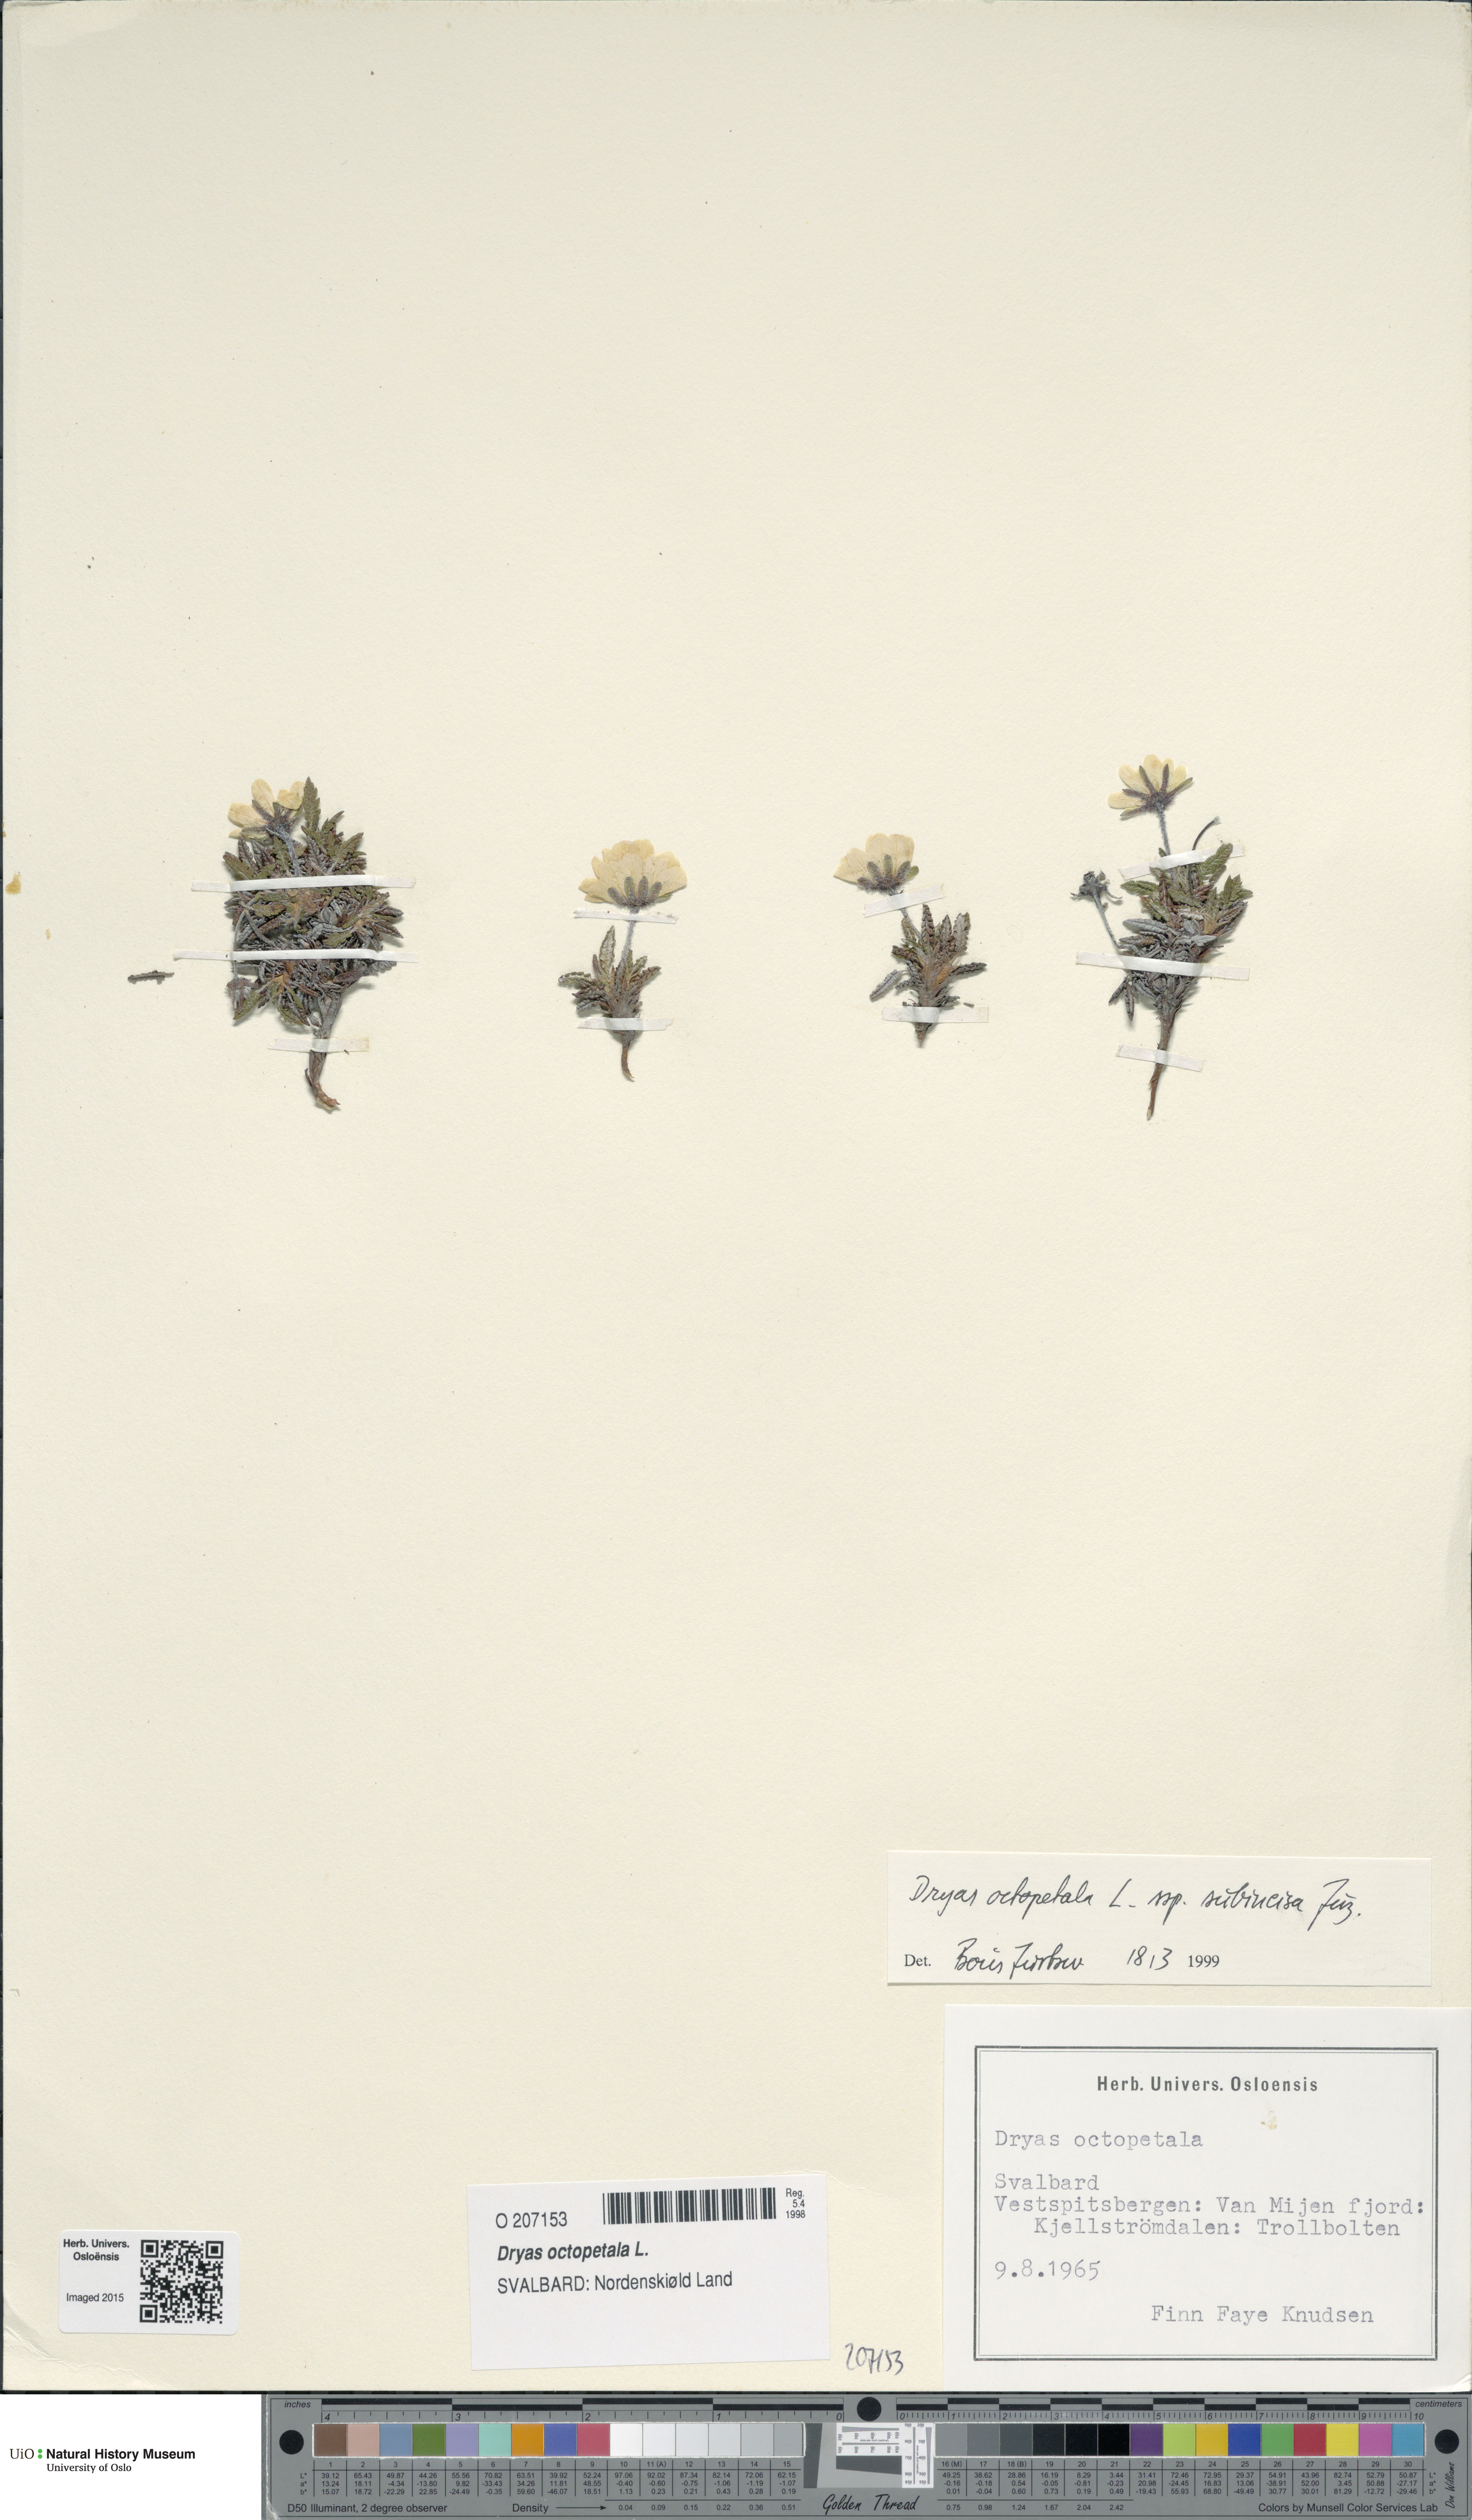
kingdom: Plantae
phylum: Tracheophyta
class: Magnoliopsida
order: Rosales
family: Rosaceae
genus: Dryas
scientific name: Dryas octopetala
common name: Eight-petal mountain-avens
